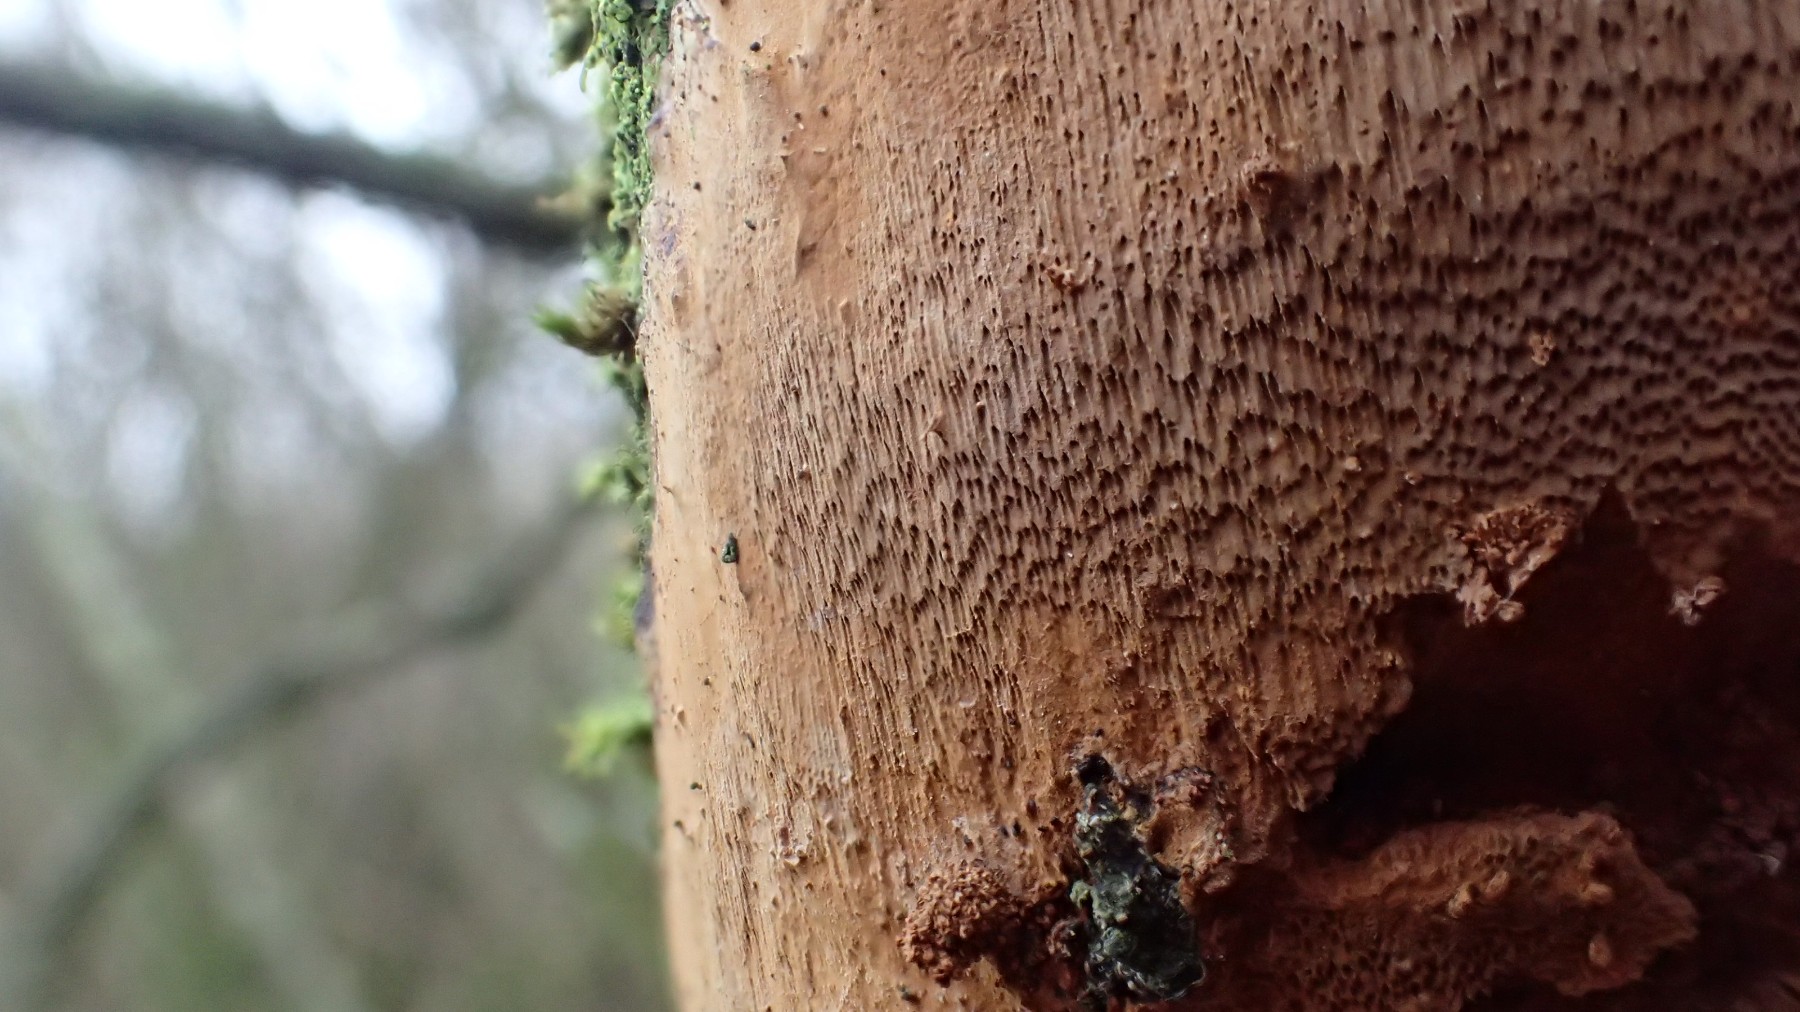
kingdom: Fungi
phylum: Basidiomycota
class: Agaricomycetes
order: Hymenochaetales
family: Hymenochaetaceae
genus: Fuscoporia
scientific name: Fuscoporia ferrea
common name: skorpe-ildporesvamp
